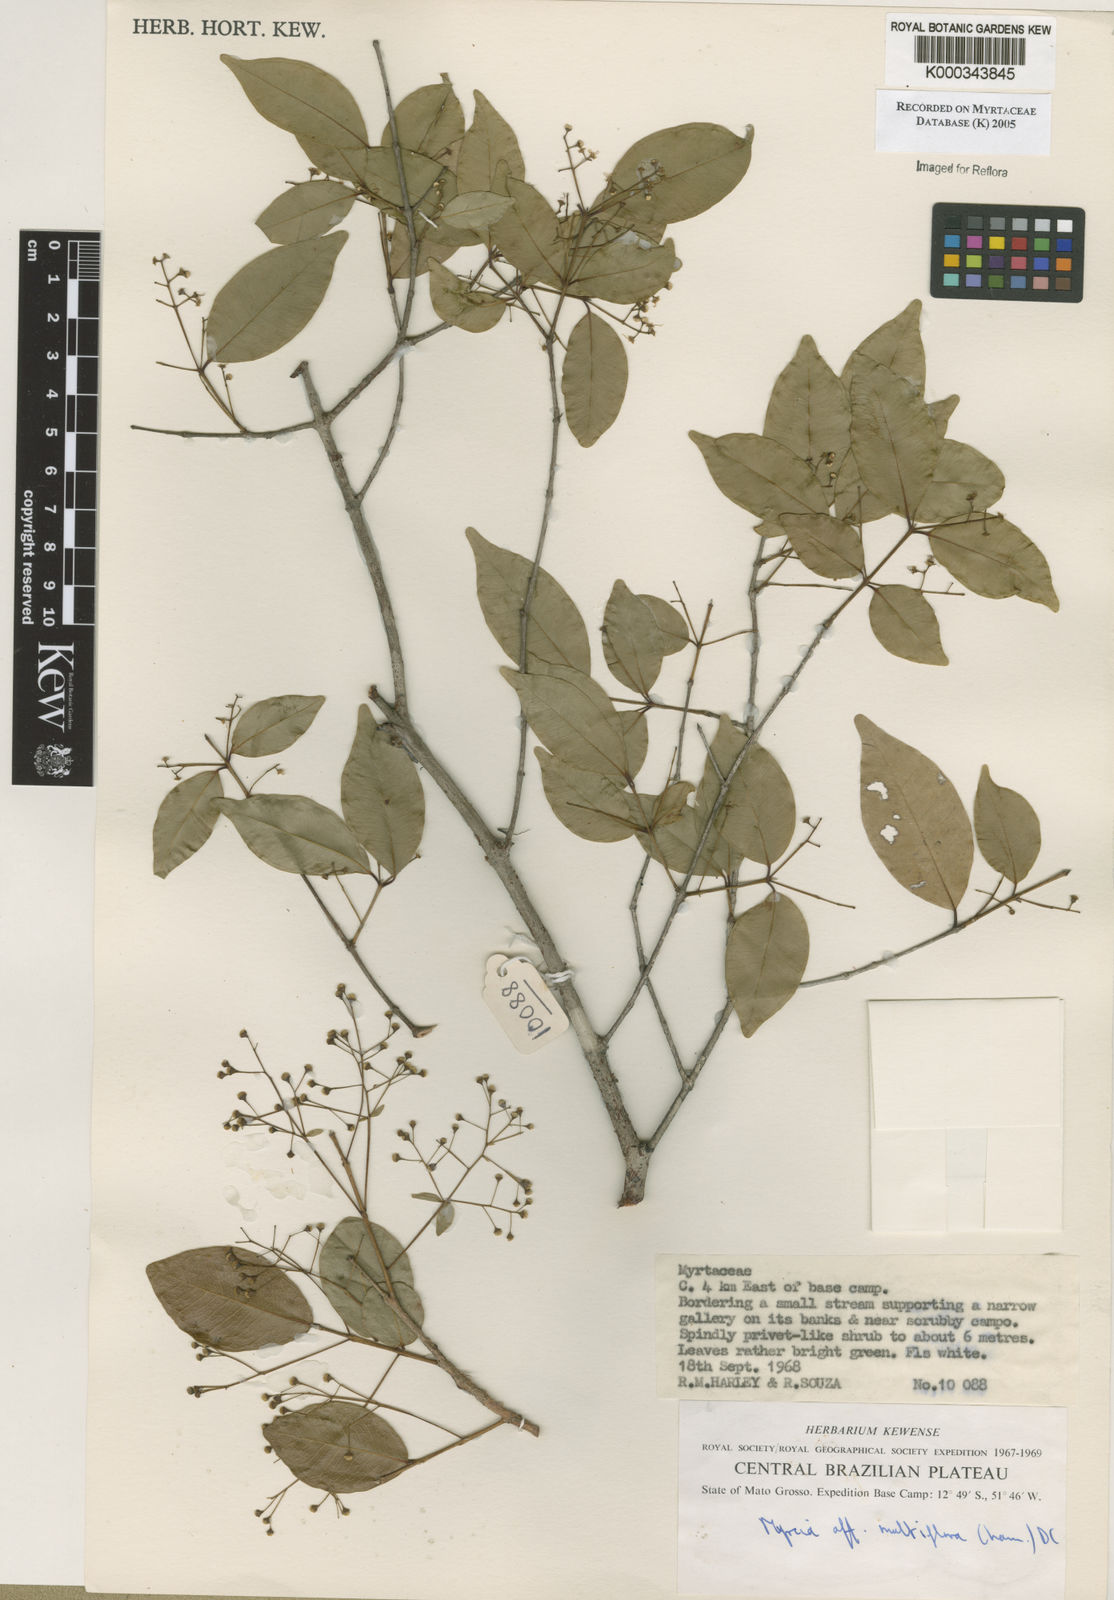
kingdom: Plantae
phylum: Tracheophyta
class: Magnoliopsida
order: Myrtales
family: Myrtaceae
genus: Myrcia
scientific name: Myrcia multiflora
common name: Pedra hume
